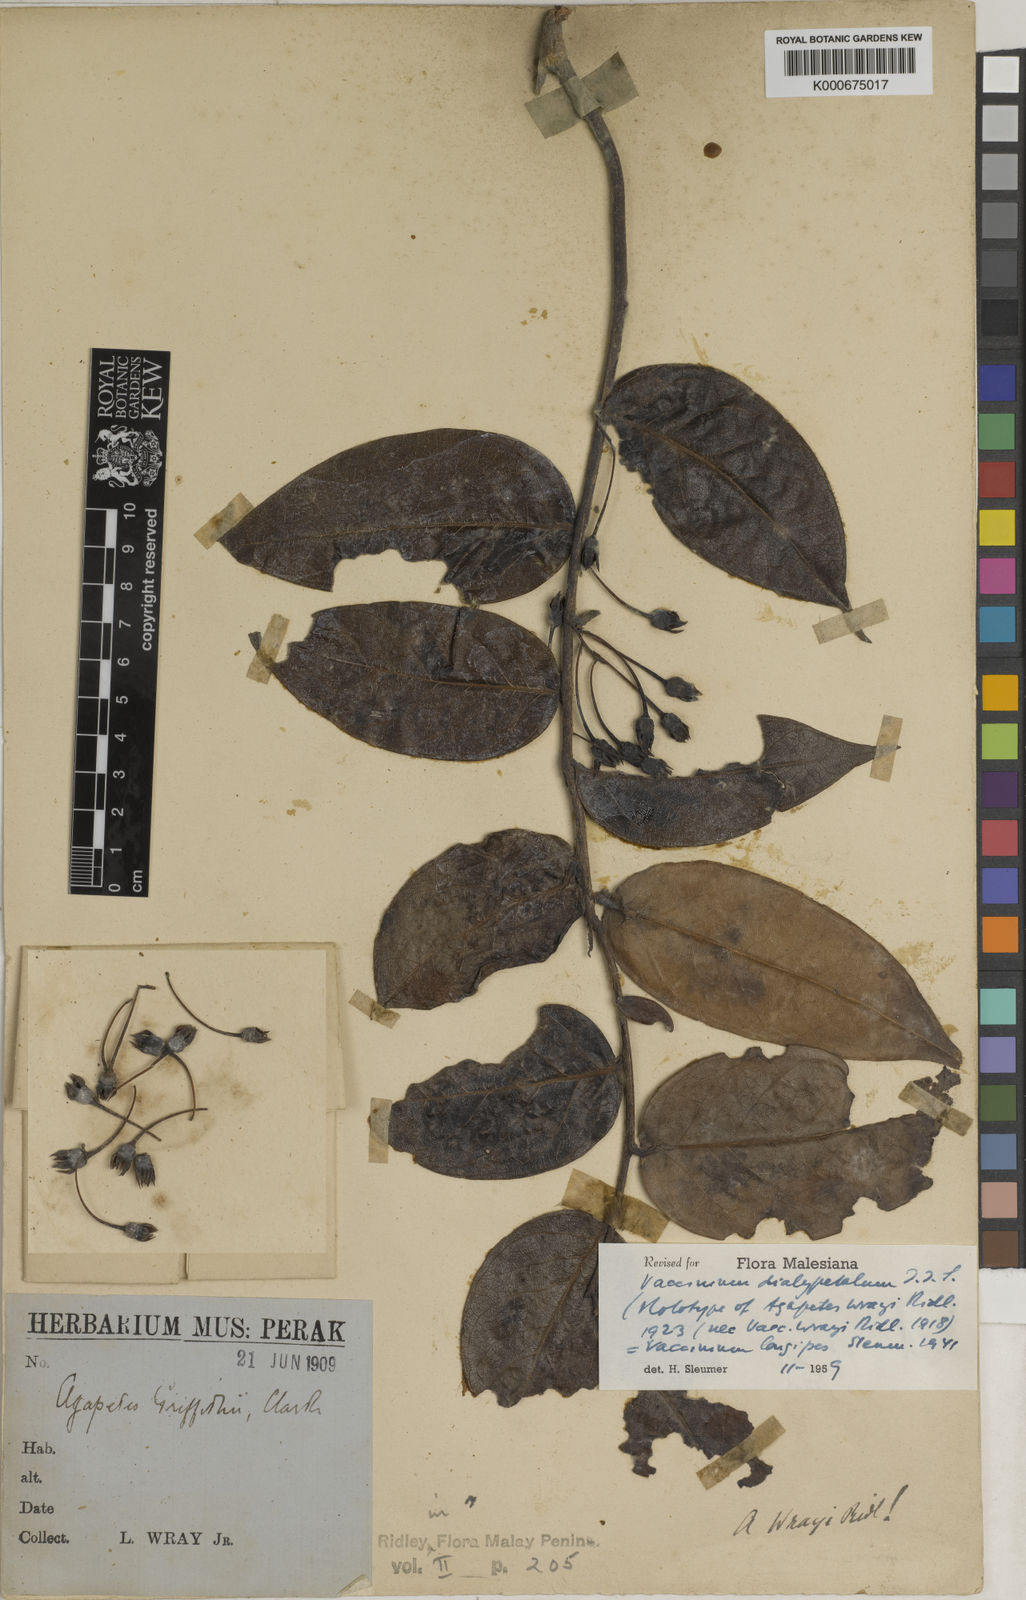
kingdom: Plantae
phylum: Tracheophyta
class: Magnoliopsida
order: Ericales
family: Ericaceae
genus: Vaccinium
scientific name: Vaccinium dialypetalum
